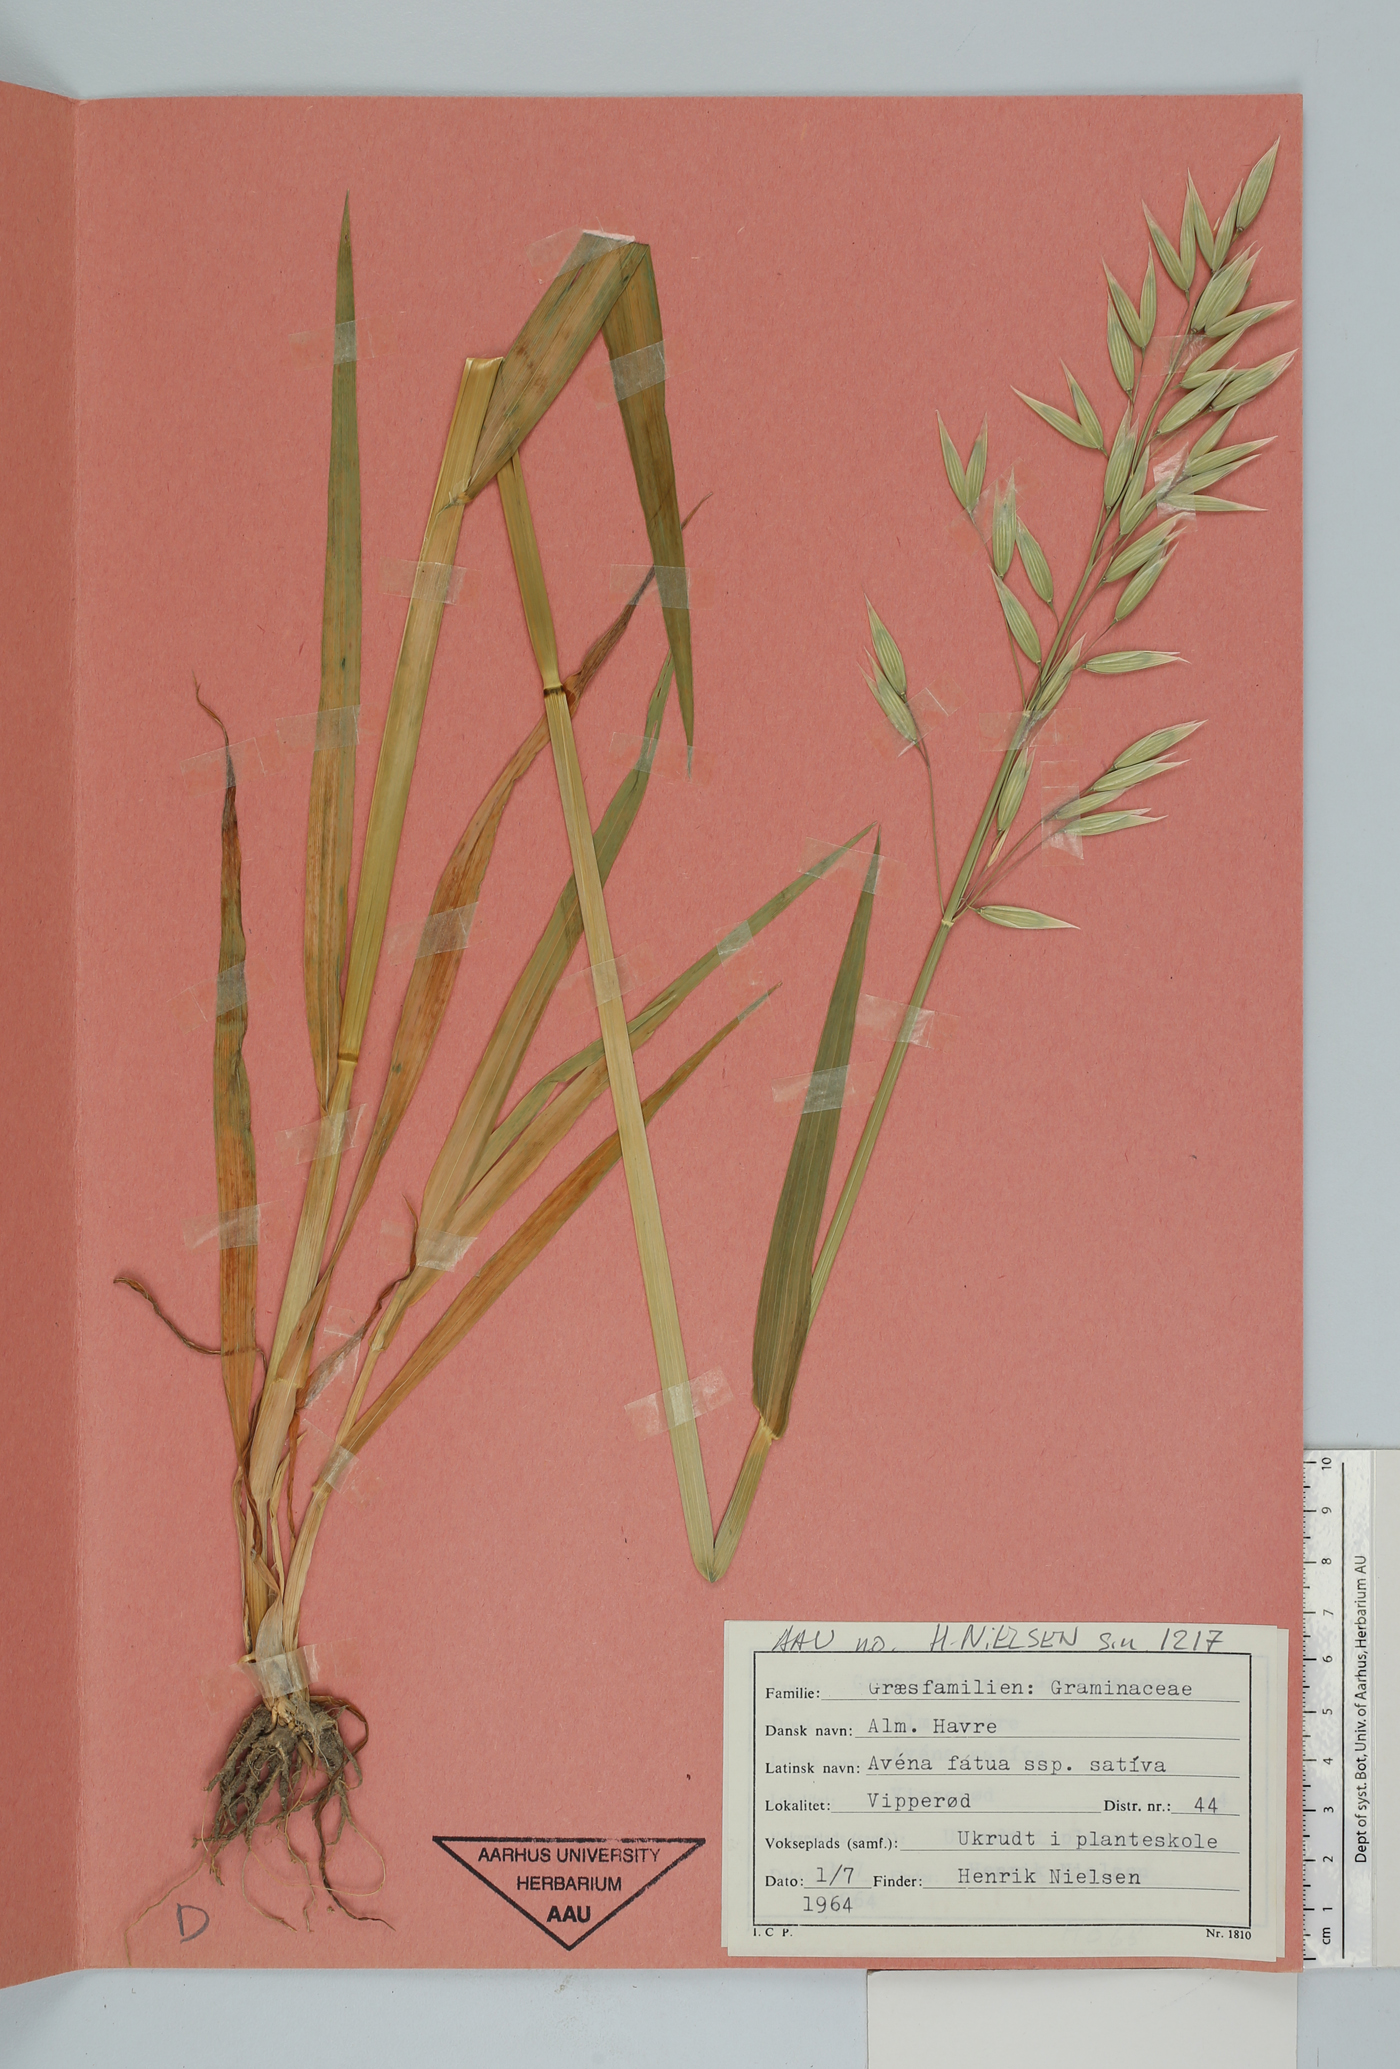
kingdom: Plantae
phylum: Tracheophyta
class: Liliopsida
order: Poales
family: Poaceae
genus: Avena
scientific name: Avena sativa
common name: Oat
